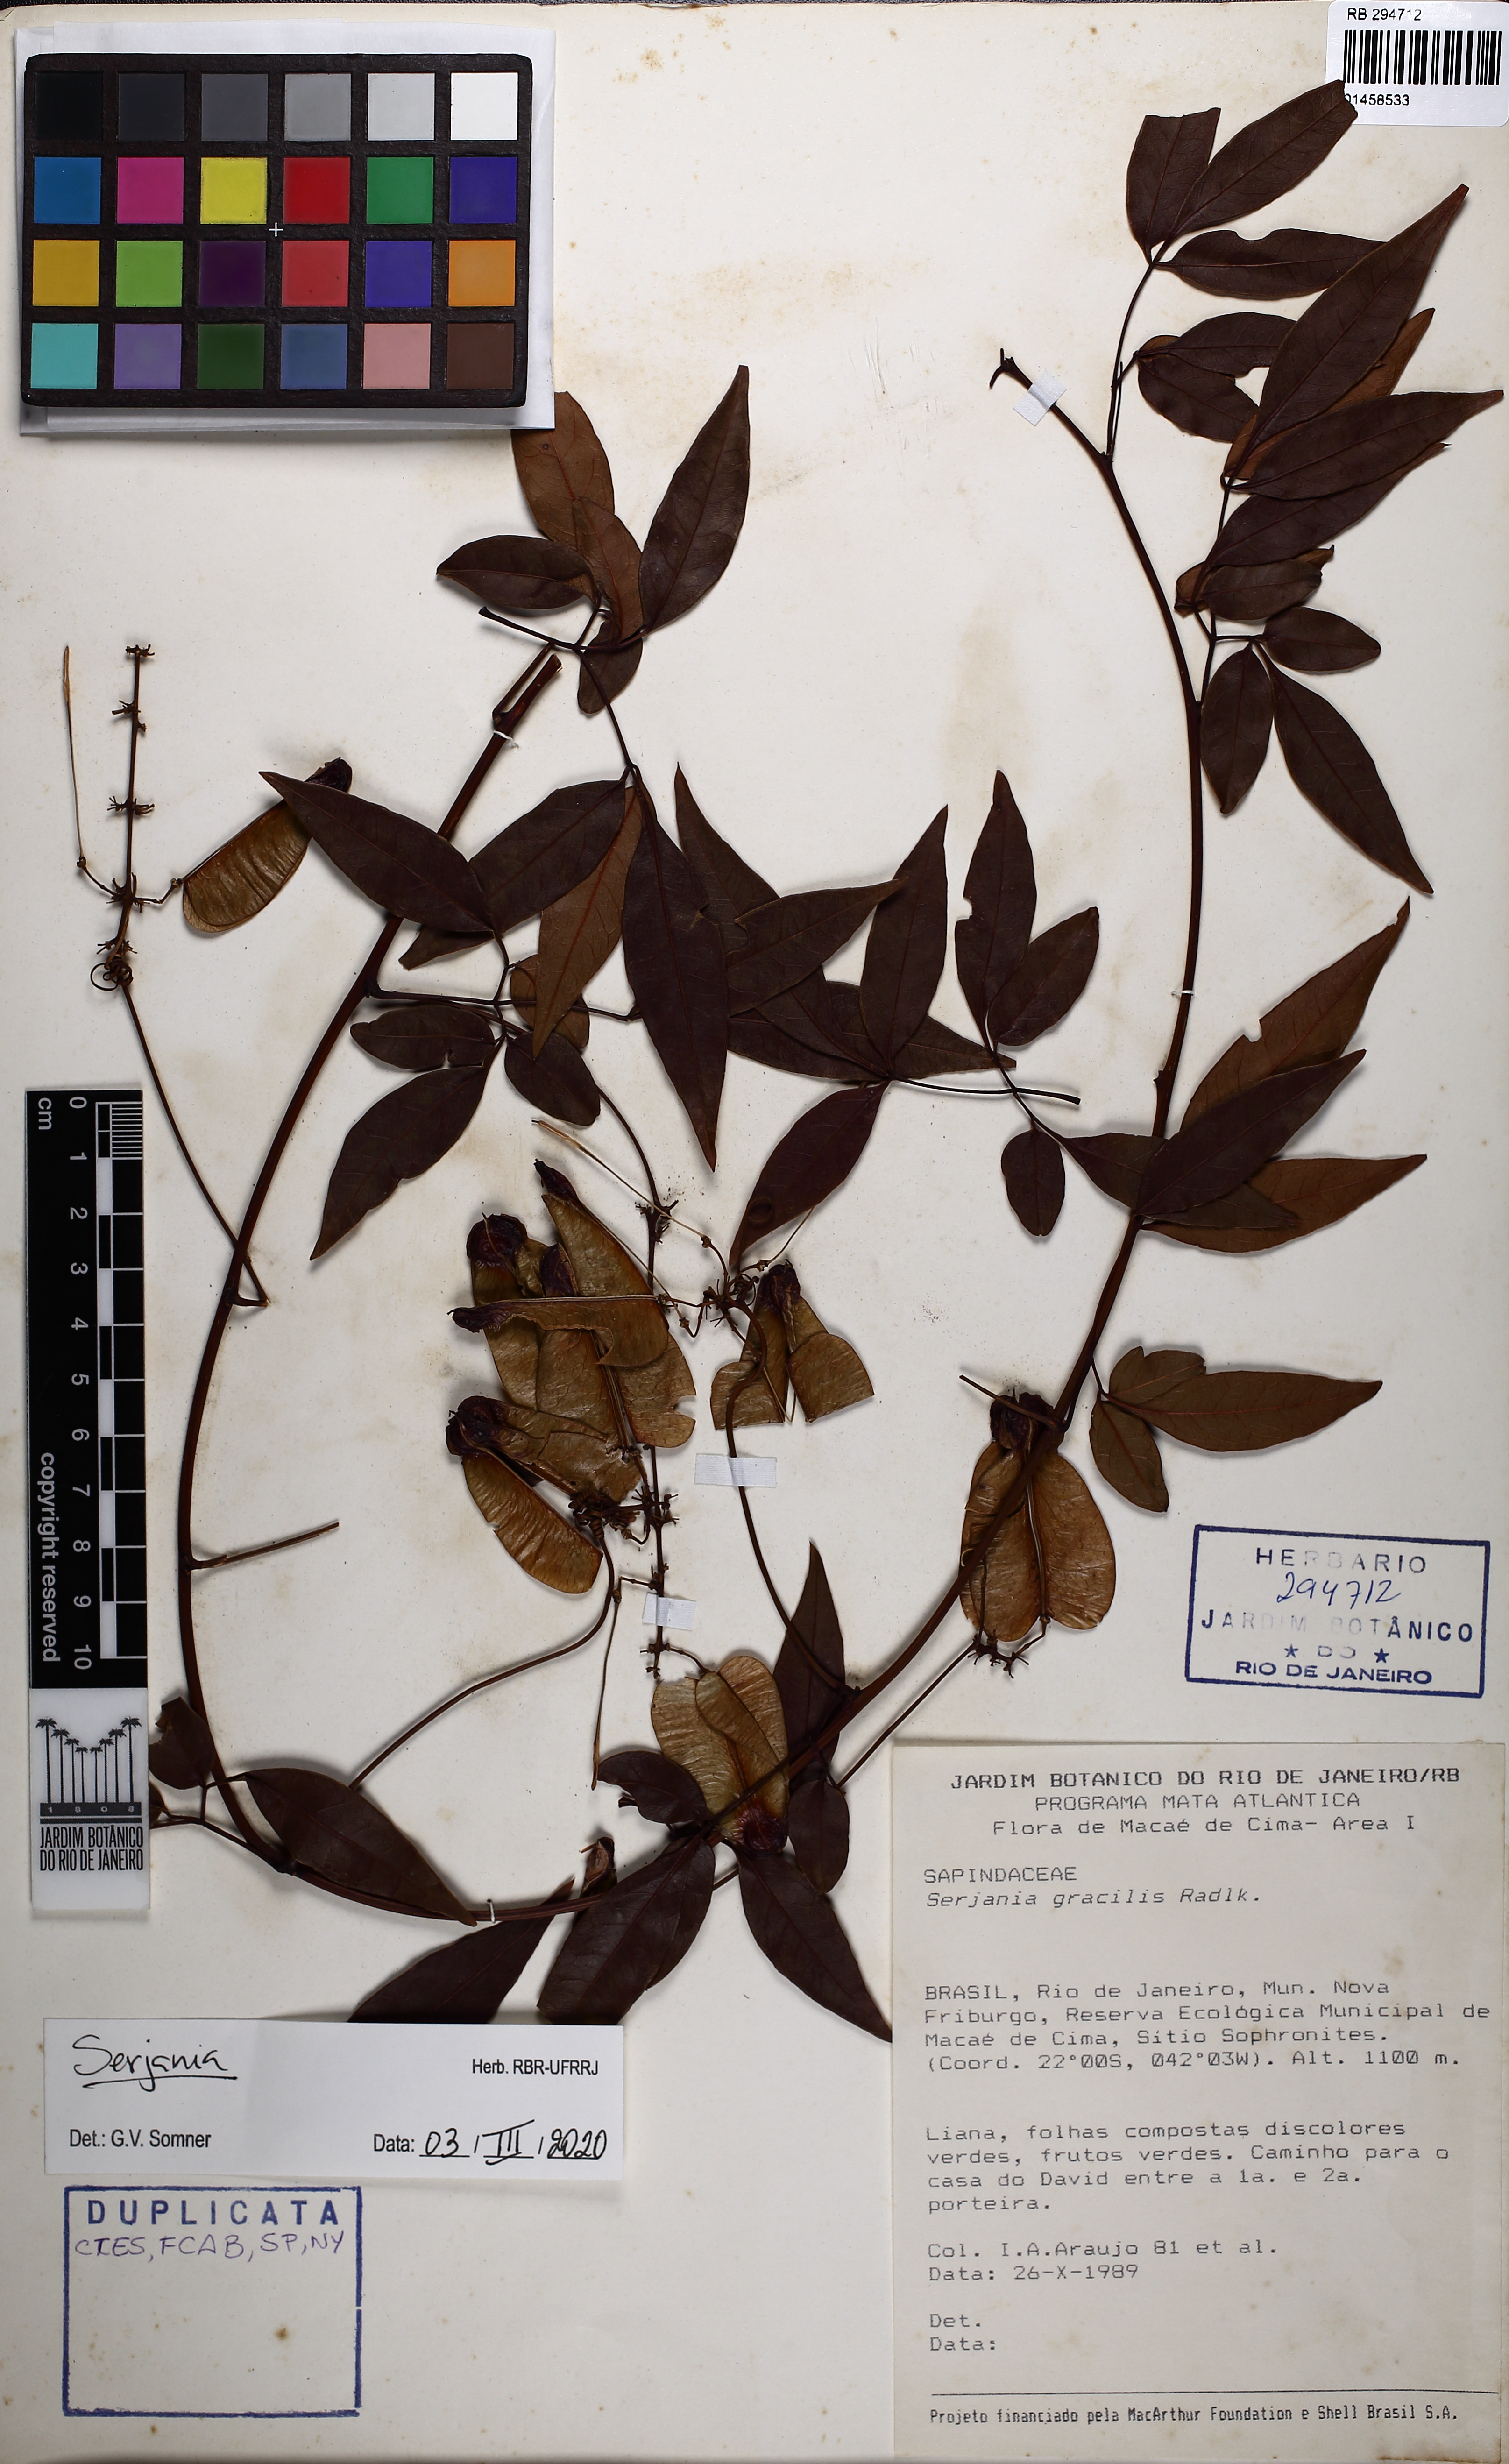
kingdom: Plantae
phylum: Tracheophyta
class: Magnoliopsida
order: Sapindales
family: Sapindaceae
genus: Serjania
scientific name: Serjania
